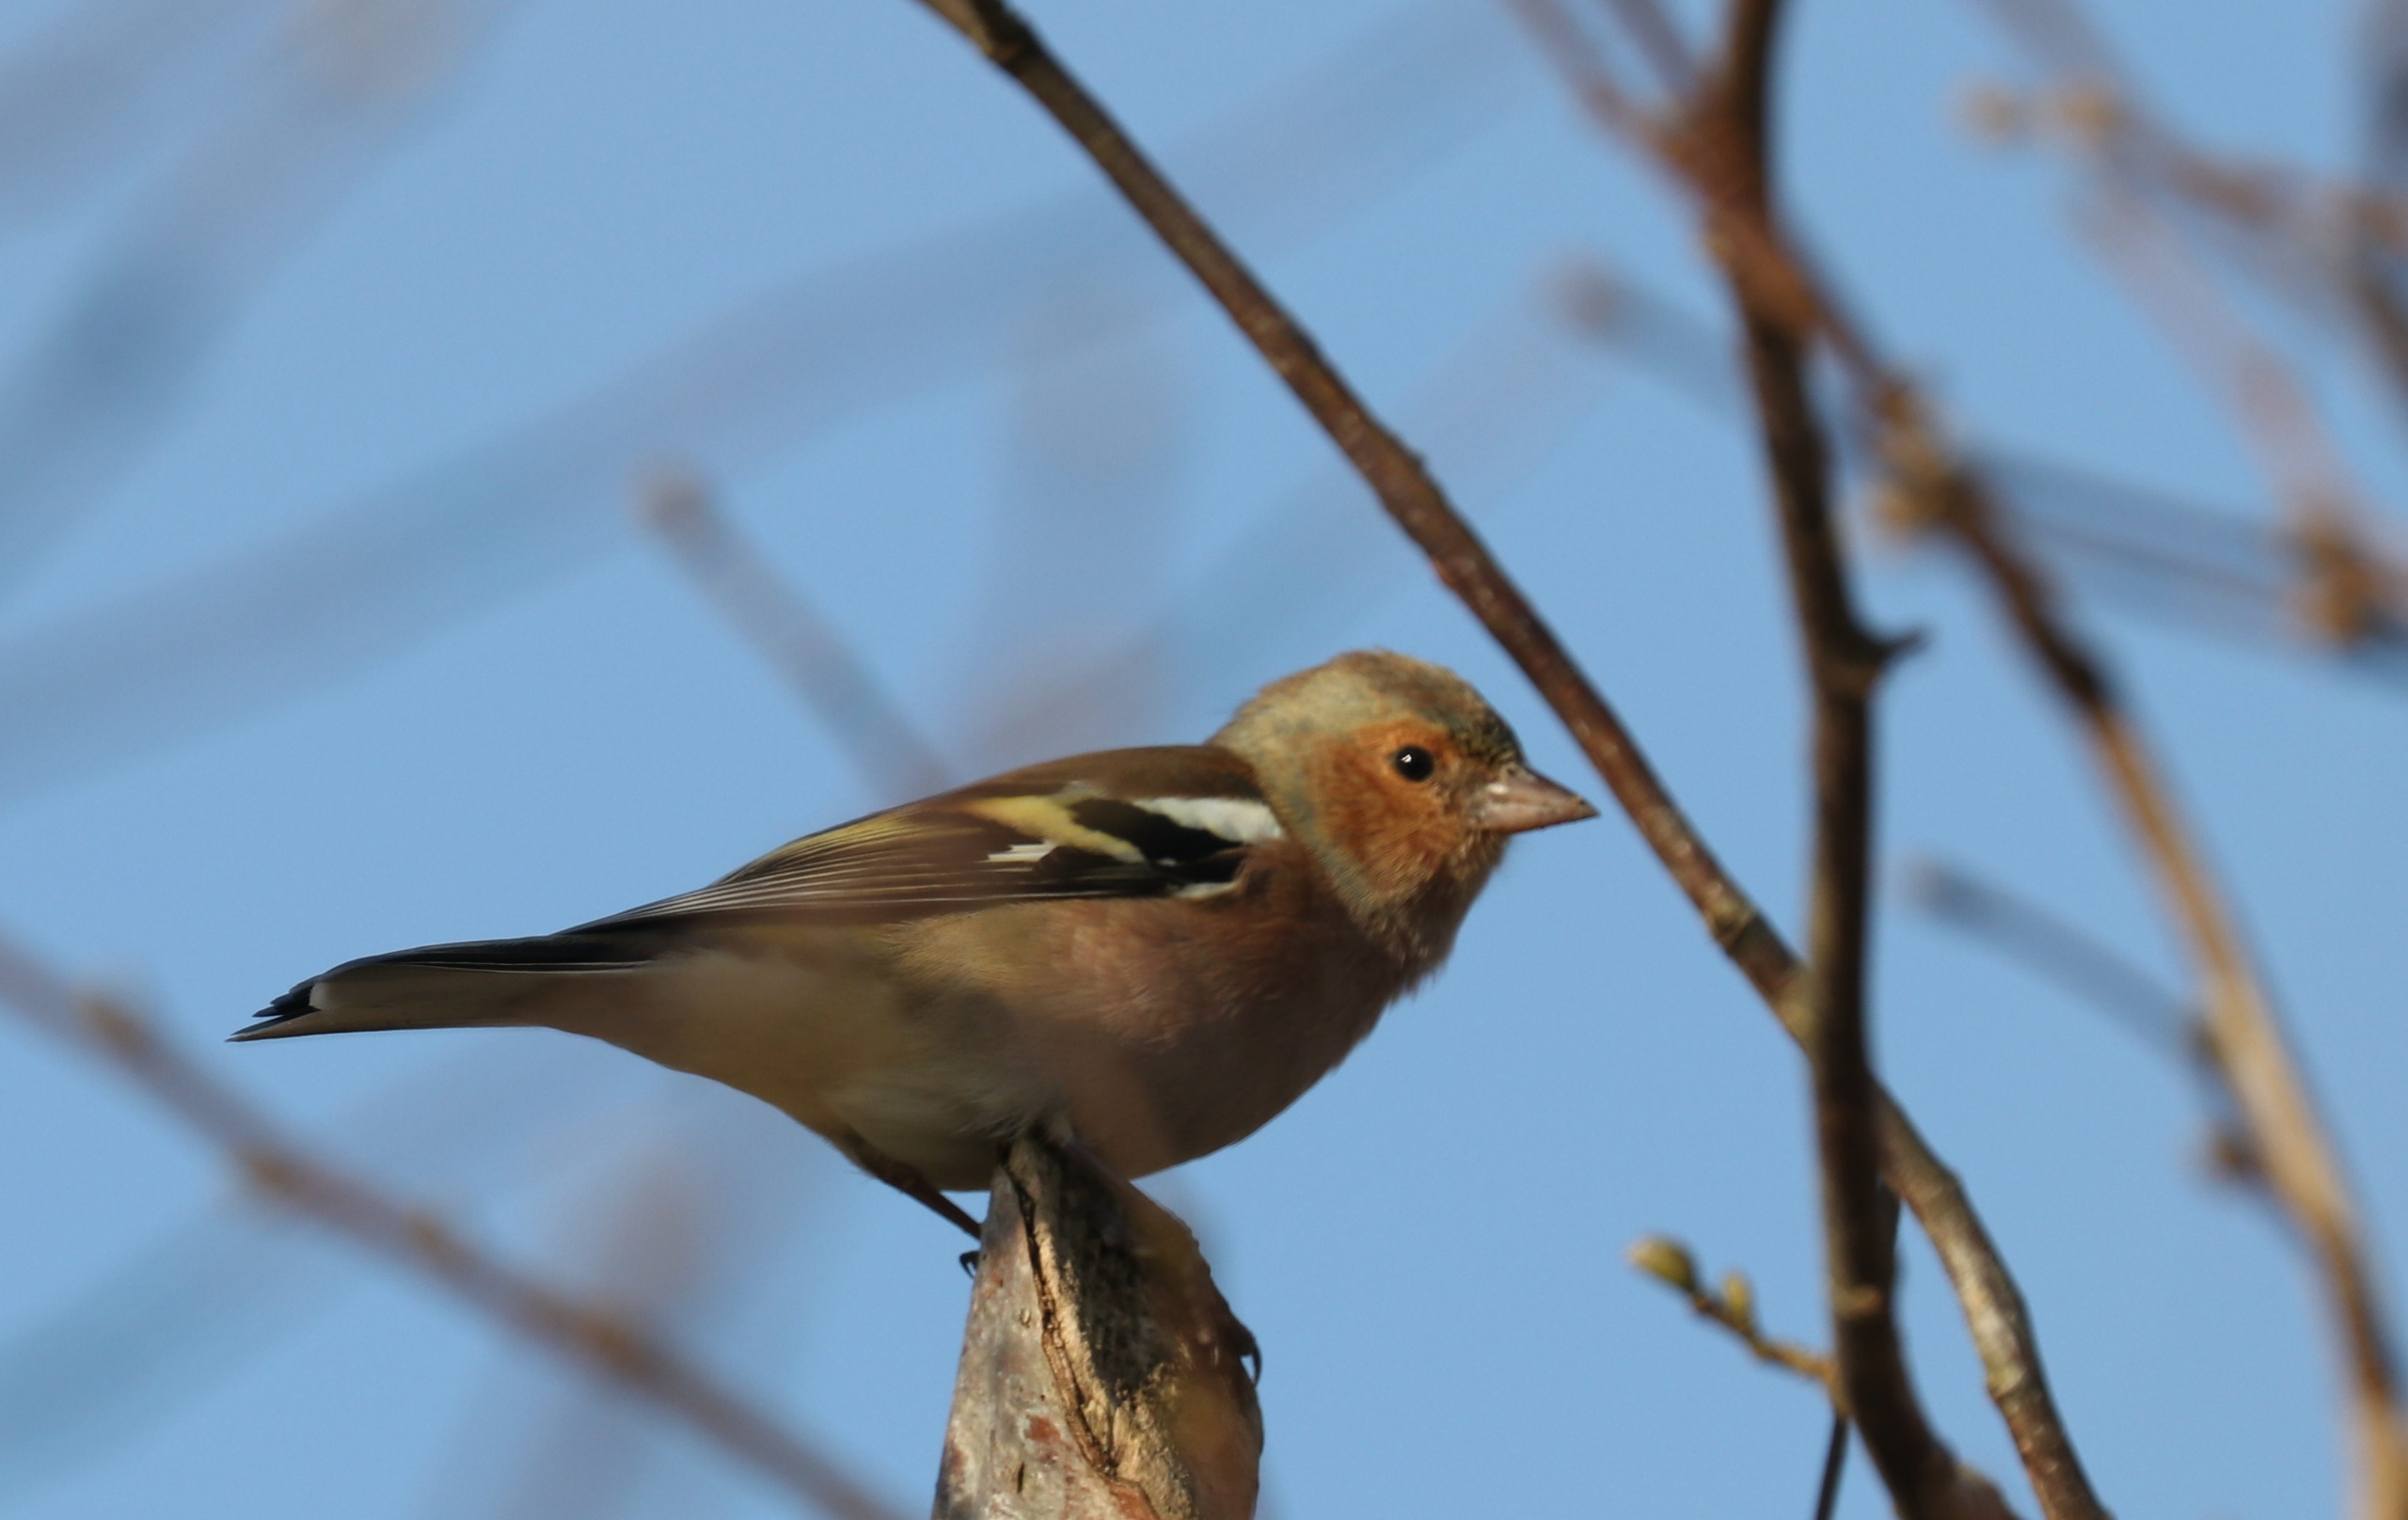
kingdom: Animalia
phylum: Chordata
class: Aves
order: Passeriformes
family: Fringillidae
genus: Fringilla
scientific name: Fringilla coelebs
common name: Bogfinke
